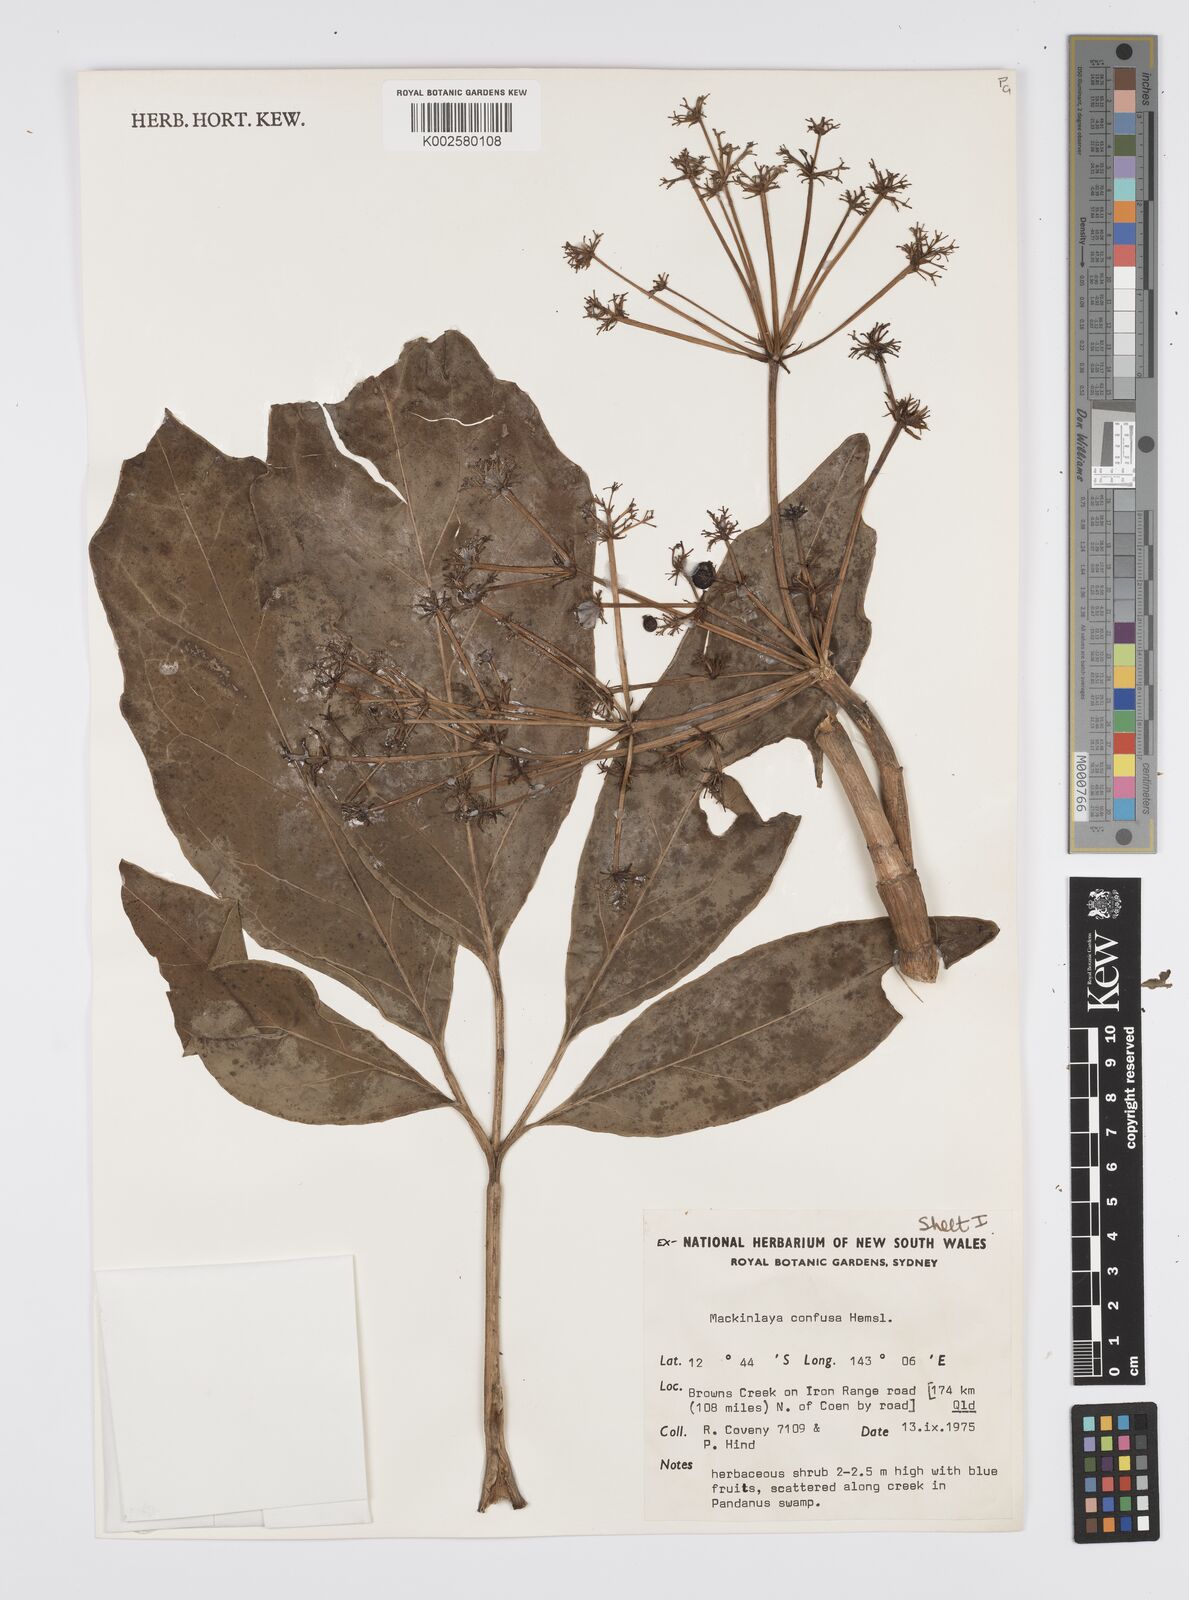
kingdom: Plantae
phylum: Tracheophyta
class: Magnoliopsida
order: Apiales
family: Apiaceae
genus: Mackinlaya
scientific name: Mackinlaya confusa
